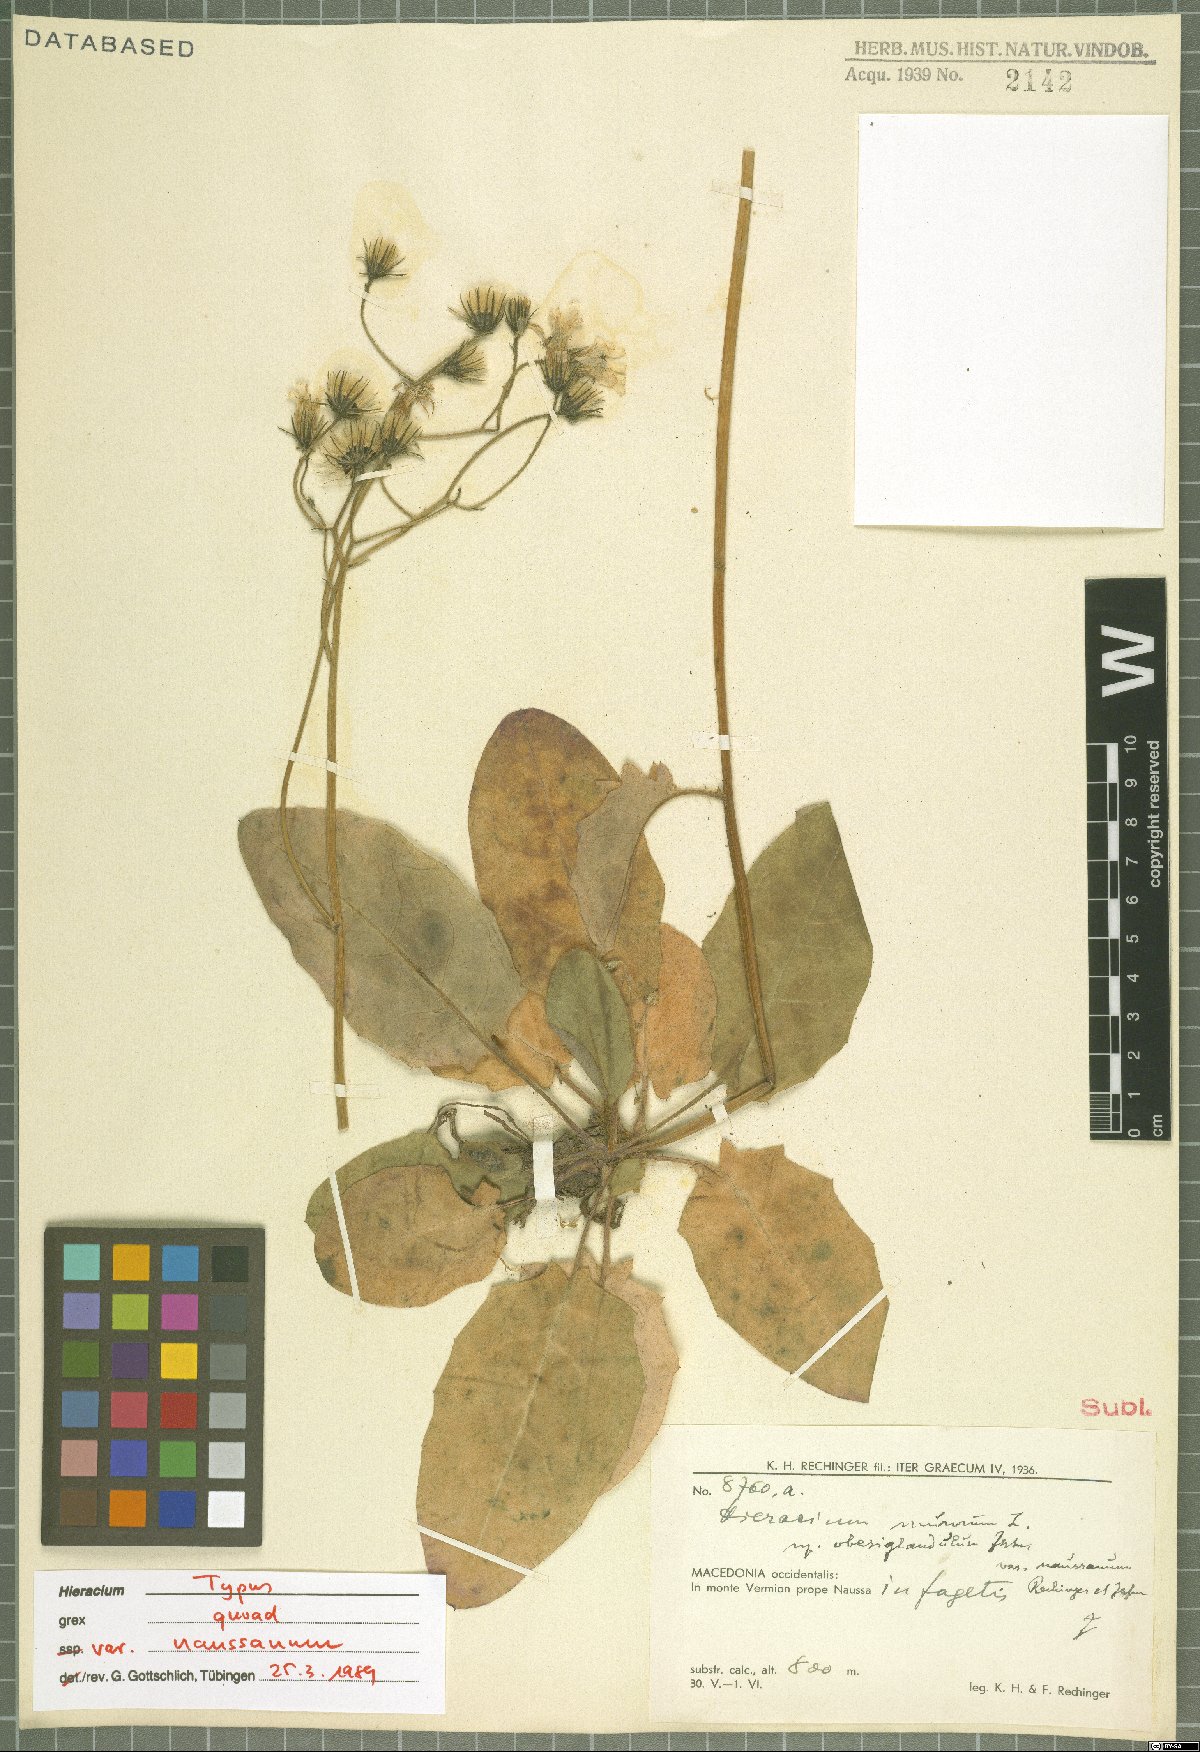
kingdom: Plantae
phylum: Tracheophyta
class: Magnoliopsida
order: Asterales
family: Asteraceae
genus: Hieracium
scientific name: Hieracium murorum
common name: Wall hawkweed
